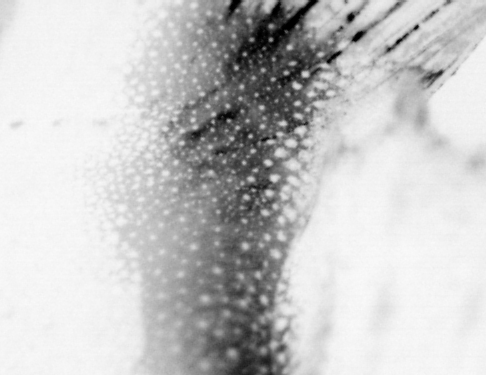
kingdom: Animalia
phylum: Chordata
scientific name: Chordata
